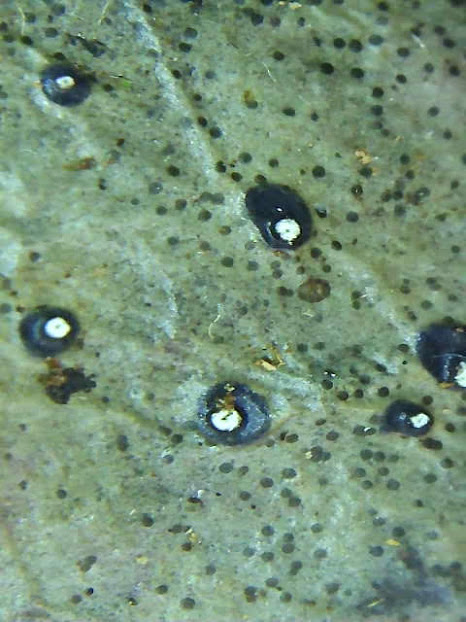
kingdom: Fungi
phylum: Ascomycota
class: Leotiomycetes
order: Phacidiales
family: Phacidiaceae
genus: Phacidium
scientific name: Phacidium lauri
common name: kristtorn-tandskive
